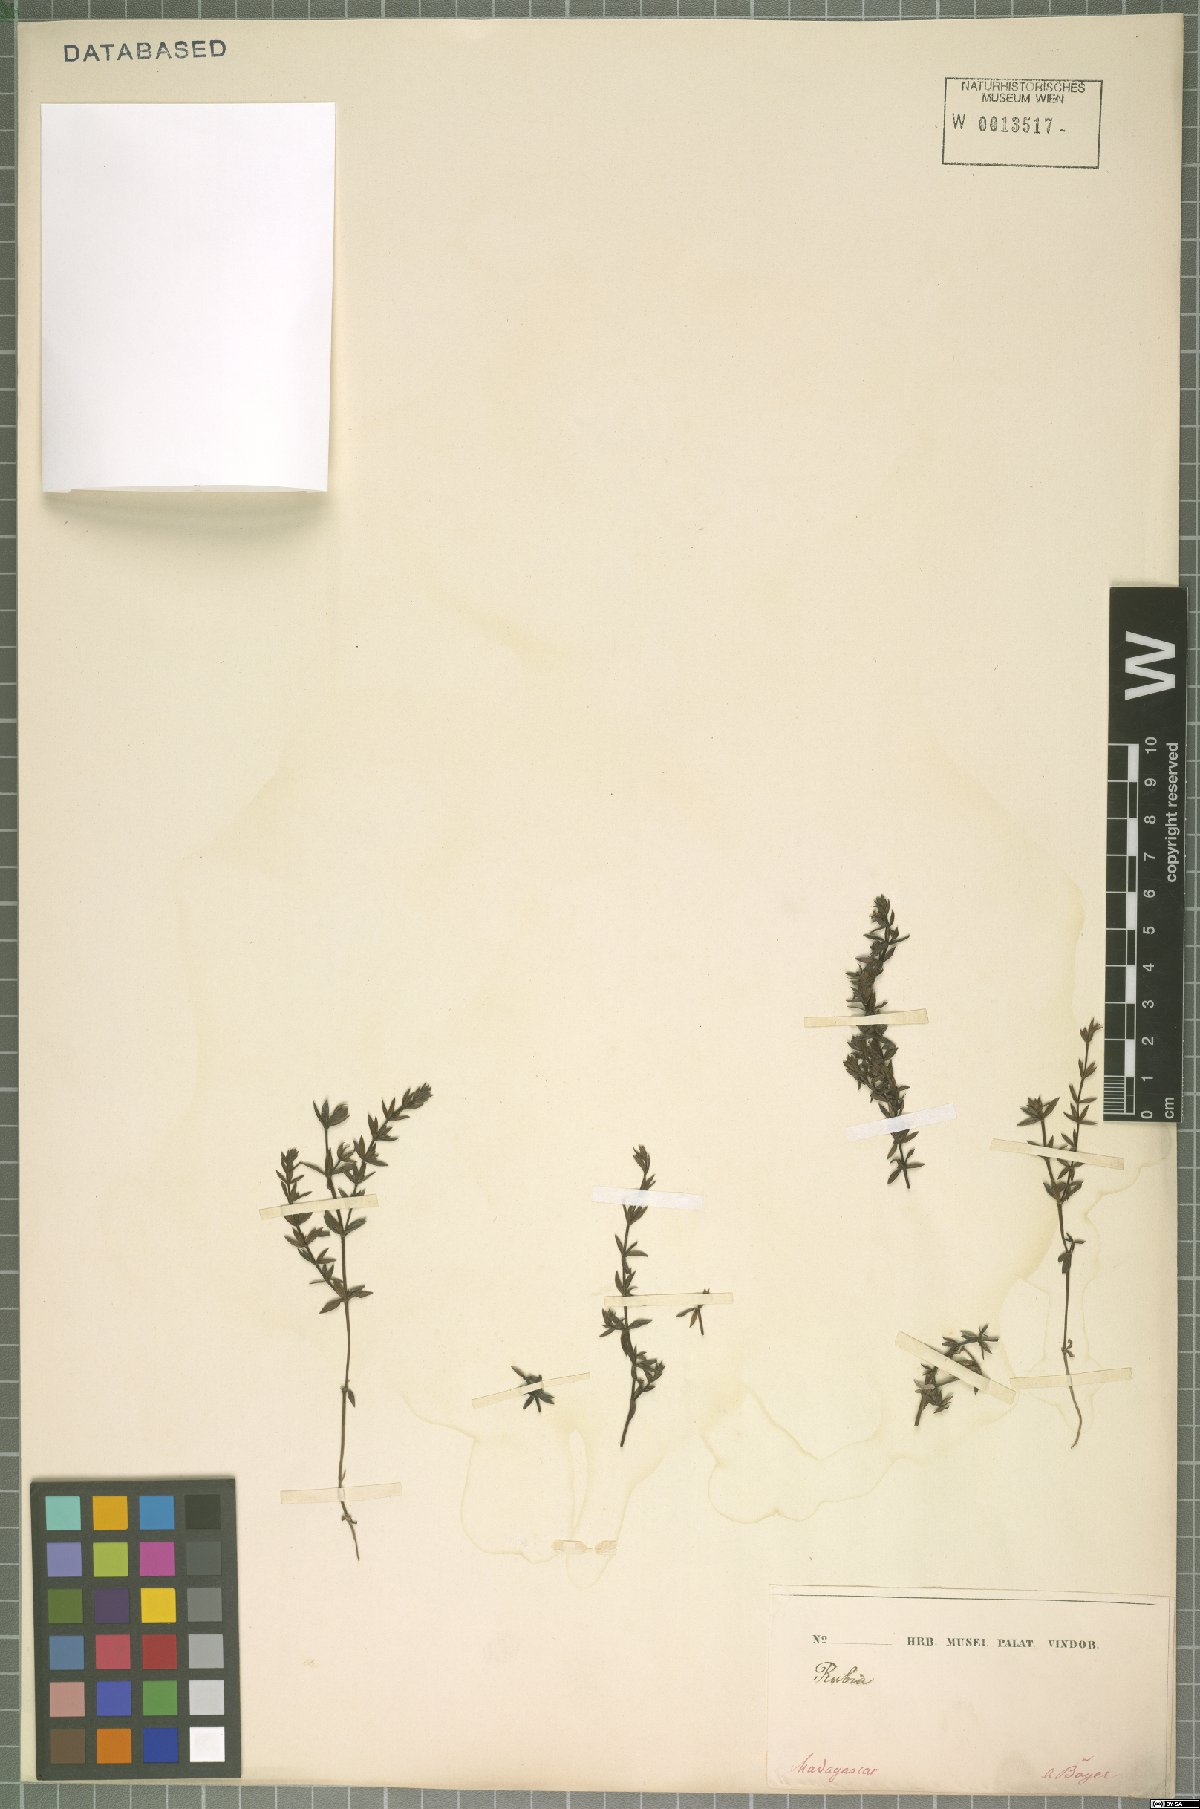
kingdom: Plantae
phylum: Tracheophyta
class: Magnoliopsida
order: Gentianales
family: Rubiaceae
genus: Galium
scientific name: Galium
